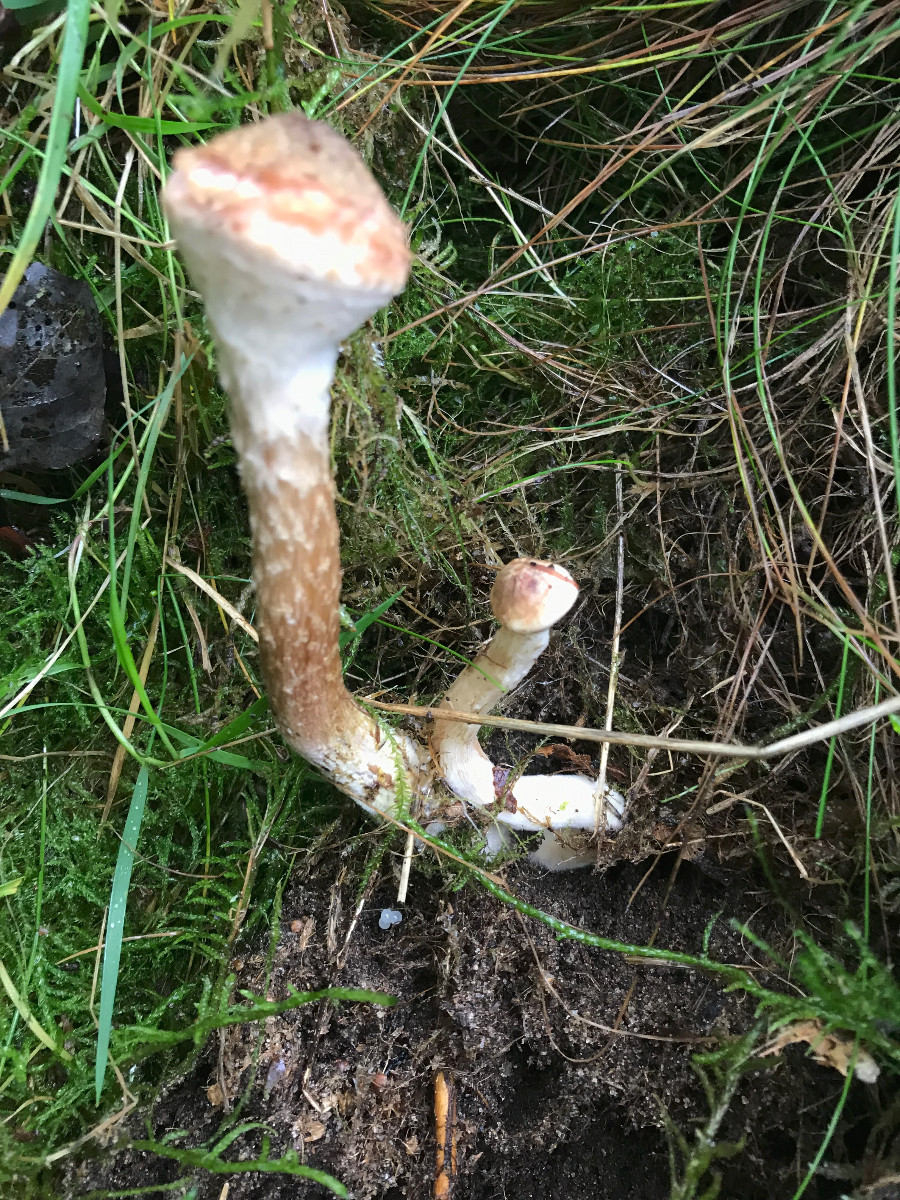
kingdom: Fungi
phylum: Basidiomycota
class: Agaricomycetes
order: Agaricales
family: Physalacriaceae
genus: Armillaria
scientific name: Armillaria
